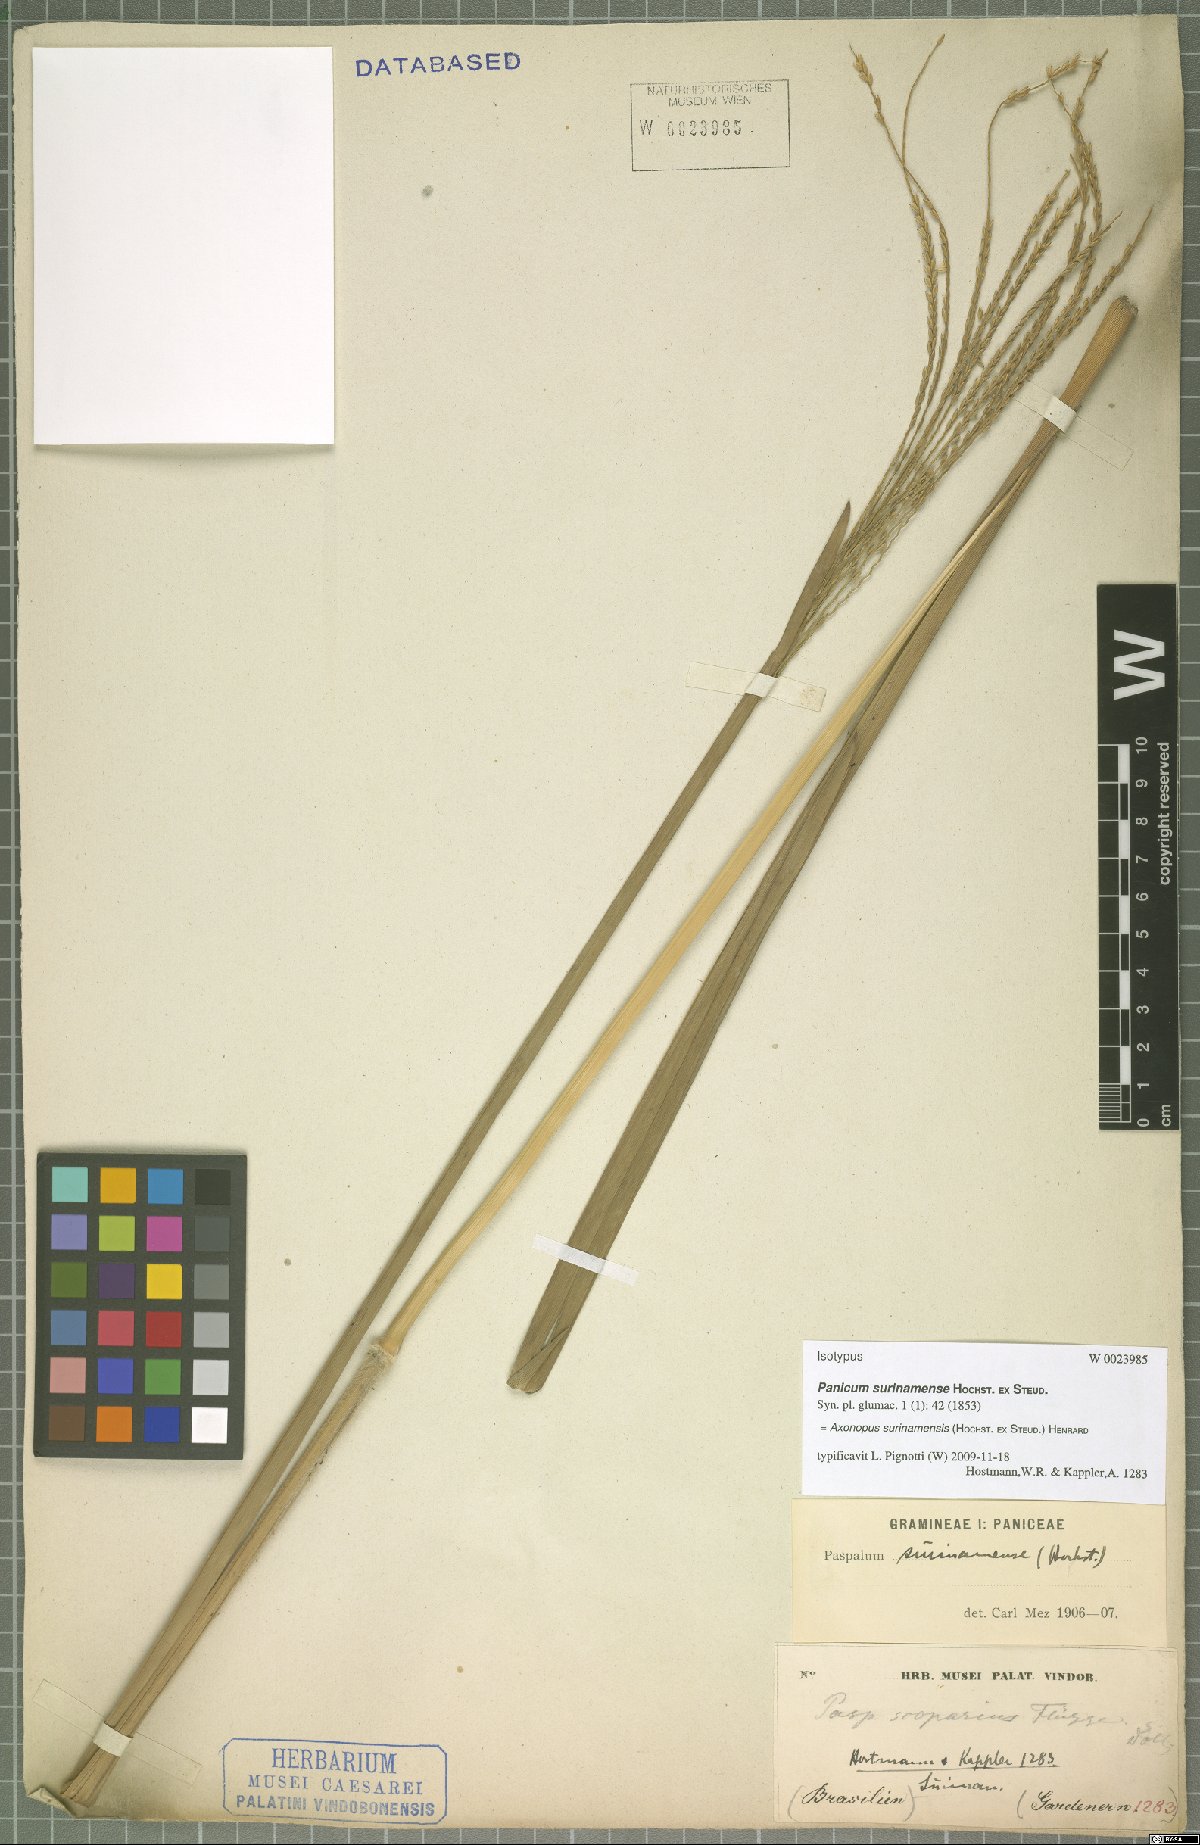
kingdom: Plantae
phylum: Tracheophyta
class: Liliopsida
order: Poales
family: Poaceae
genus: Axonopus
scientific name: Axonopus surinamensis
